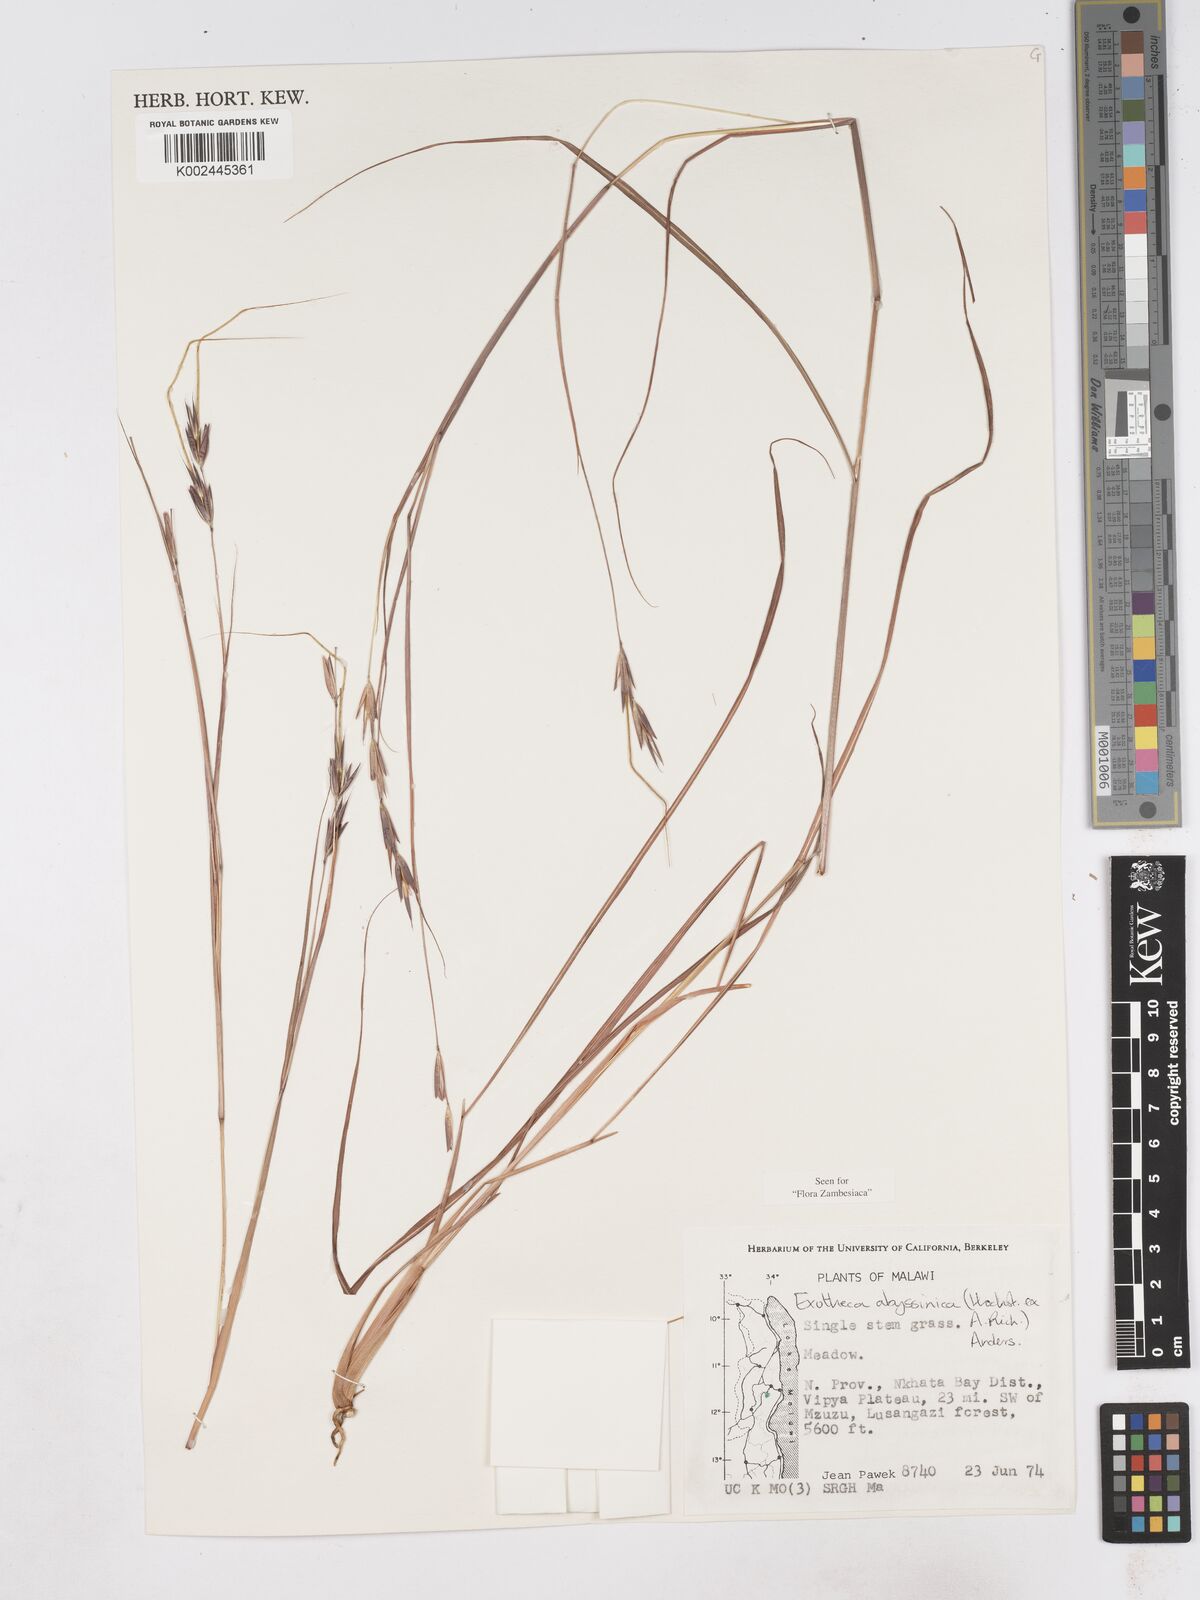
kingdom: Plantae
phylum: Tracheophyta
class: Liliopsida
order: Poales
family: Poaceae
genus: Exotheca
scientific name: Exotheca abyssinica
